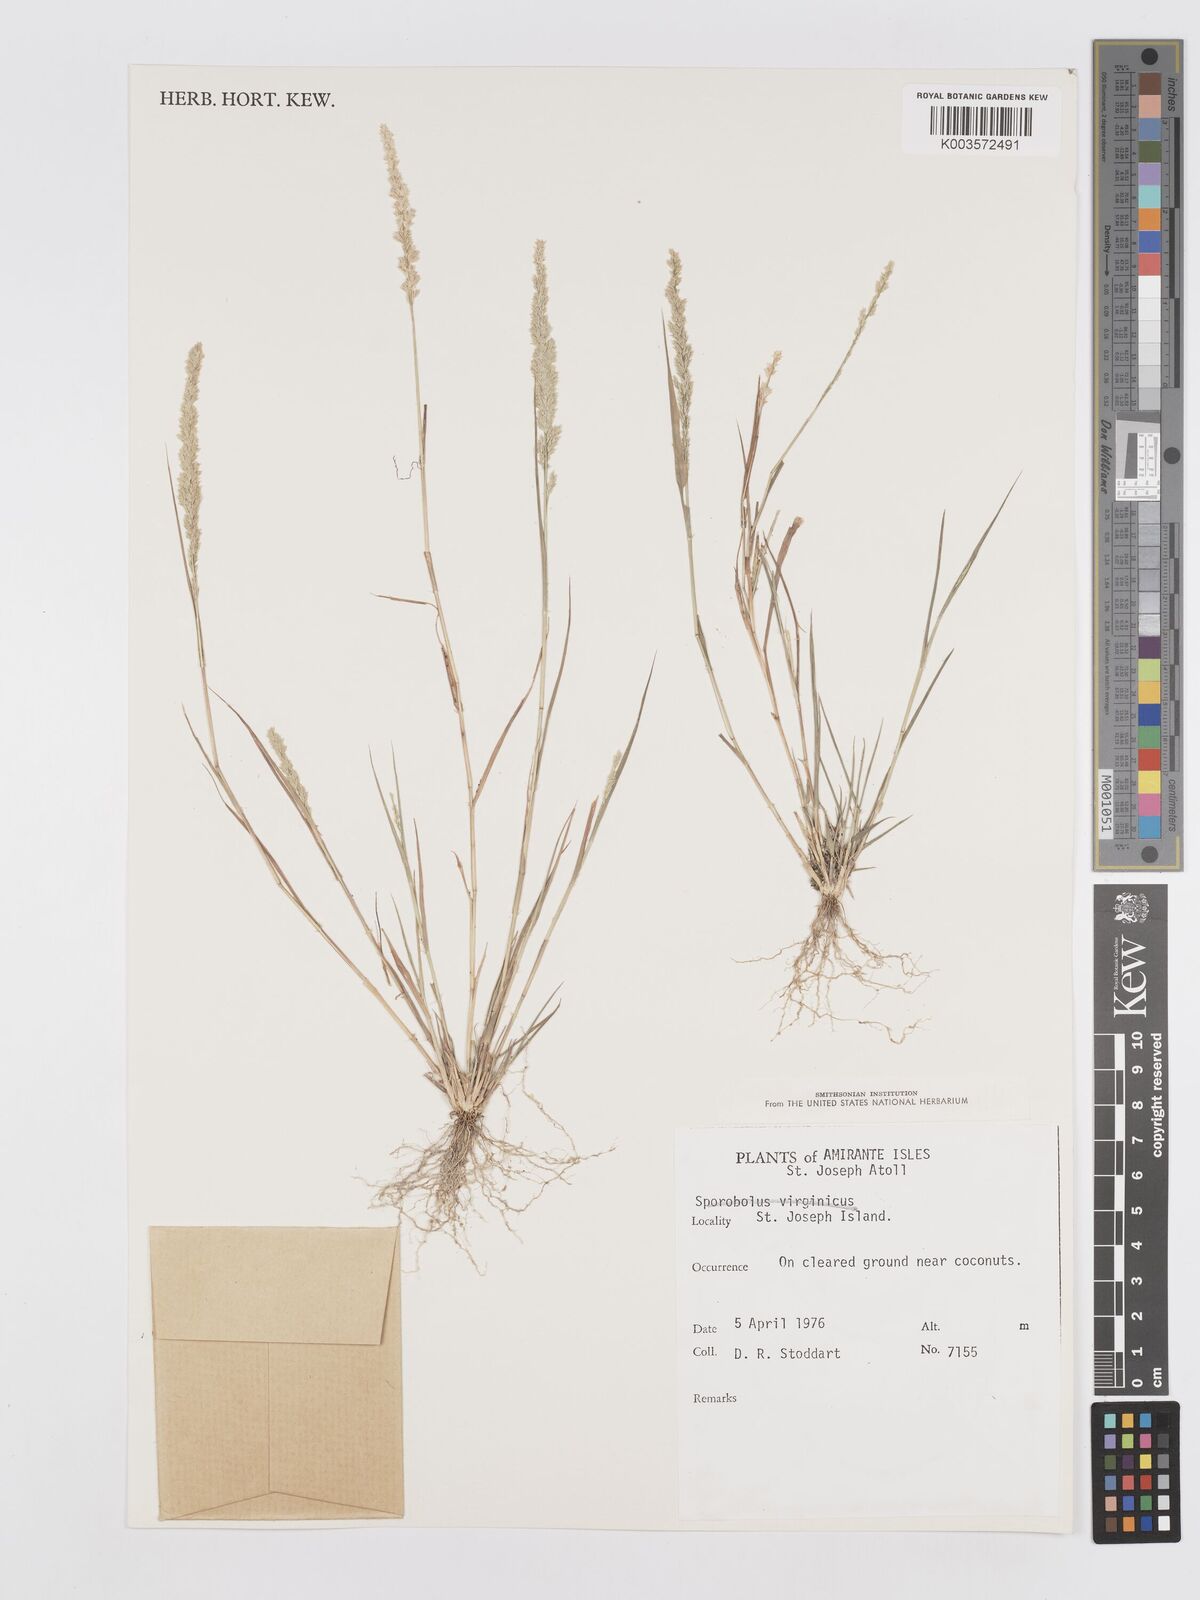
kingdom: Plantae
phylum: Tracheophyta
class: Liliopsida
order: Poales
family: Poaceae
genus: Eragrostis
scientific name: Eragrostis ciliaris
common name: Gophertail lovegrass
